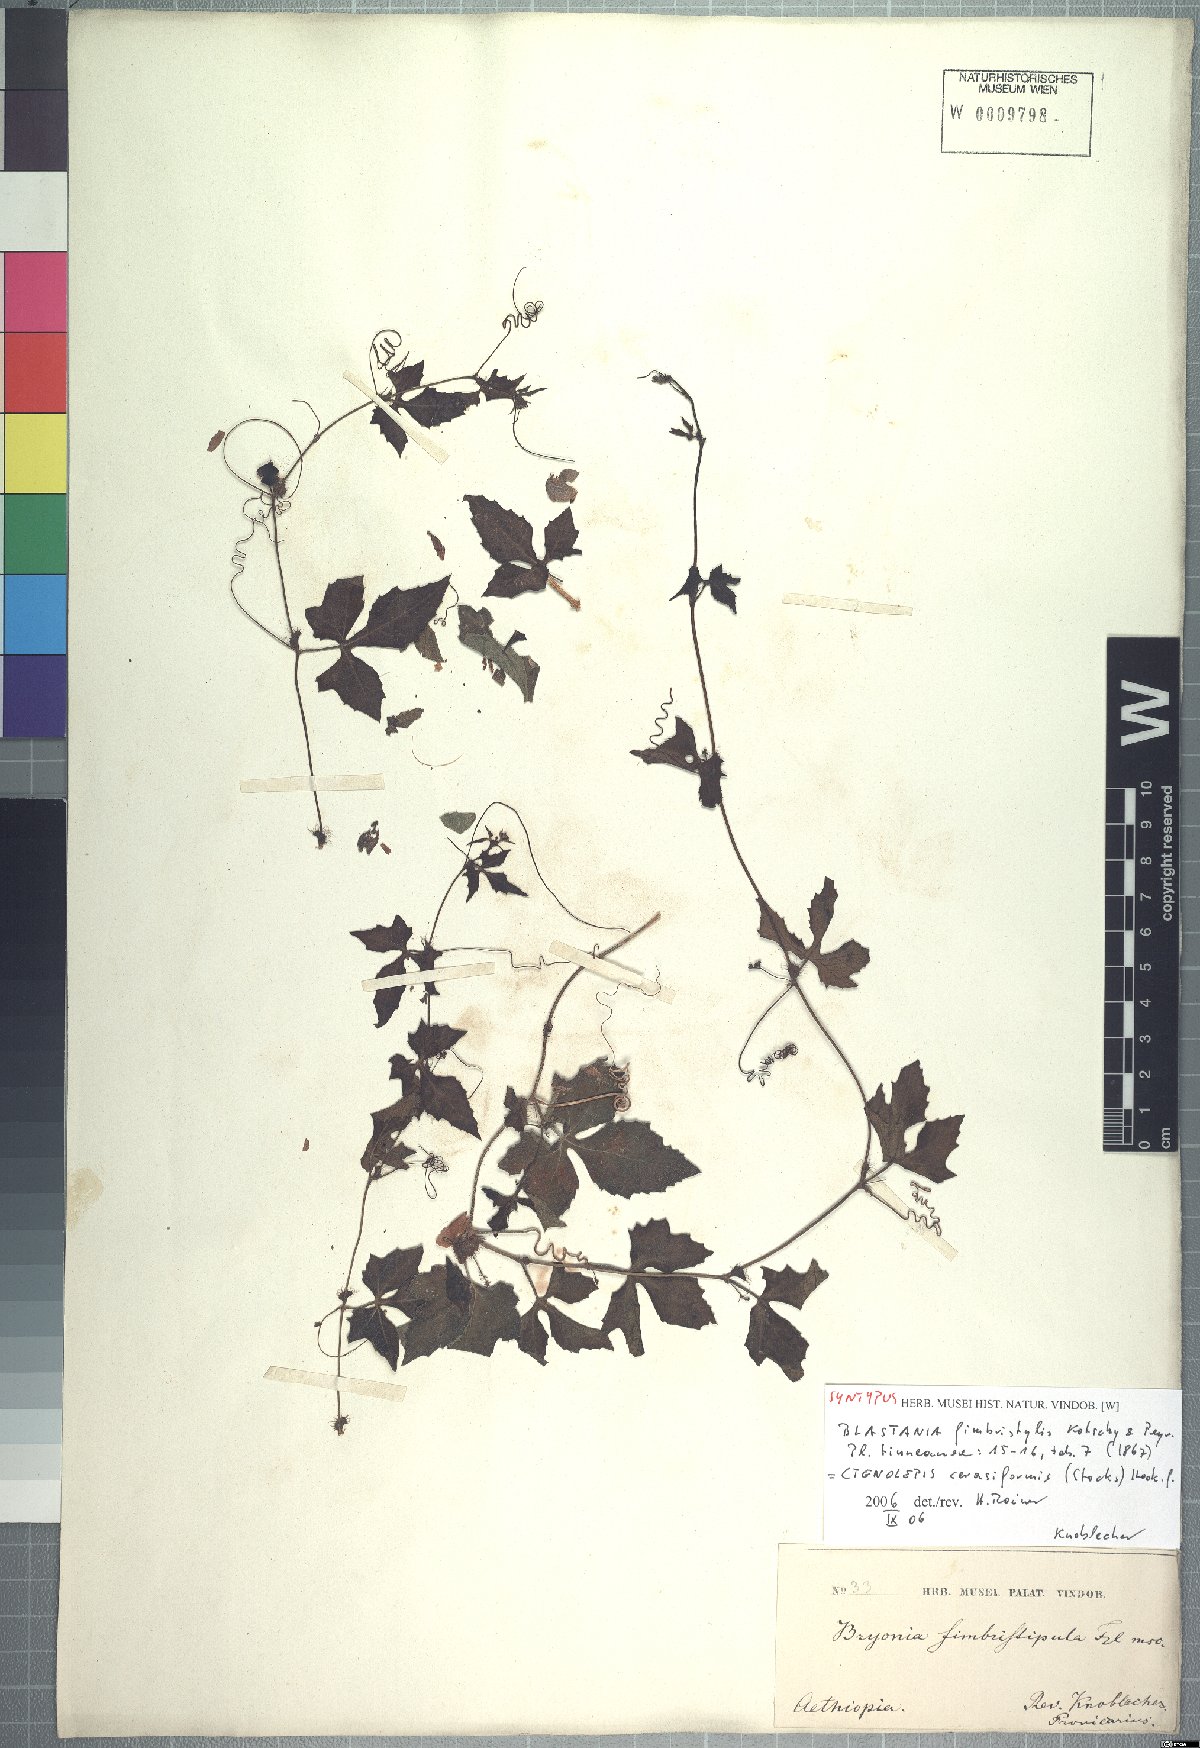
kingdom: Plantae
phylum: Tracheophyta
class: Magnoliopsida
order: Cucurbitales
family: Cucurbitaceae
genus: Blastania
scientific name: Blastania cerasiformis
